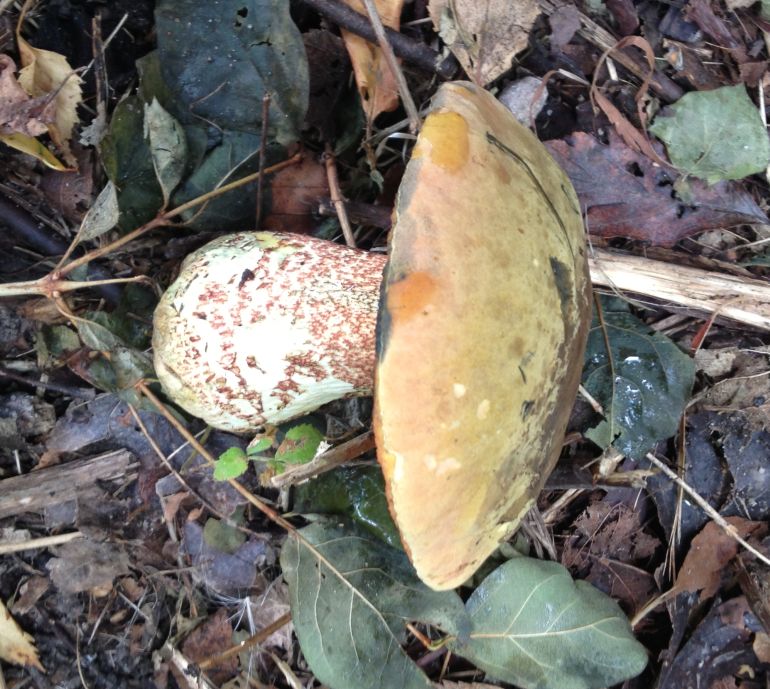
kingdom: Fungi
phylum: Basidiomycota
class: Agaricomycetes
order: Boletales
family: Boletaceae
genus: Suillellus
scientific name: Suillellus luridus
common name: netstokket indigorørhat
